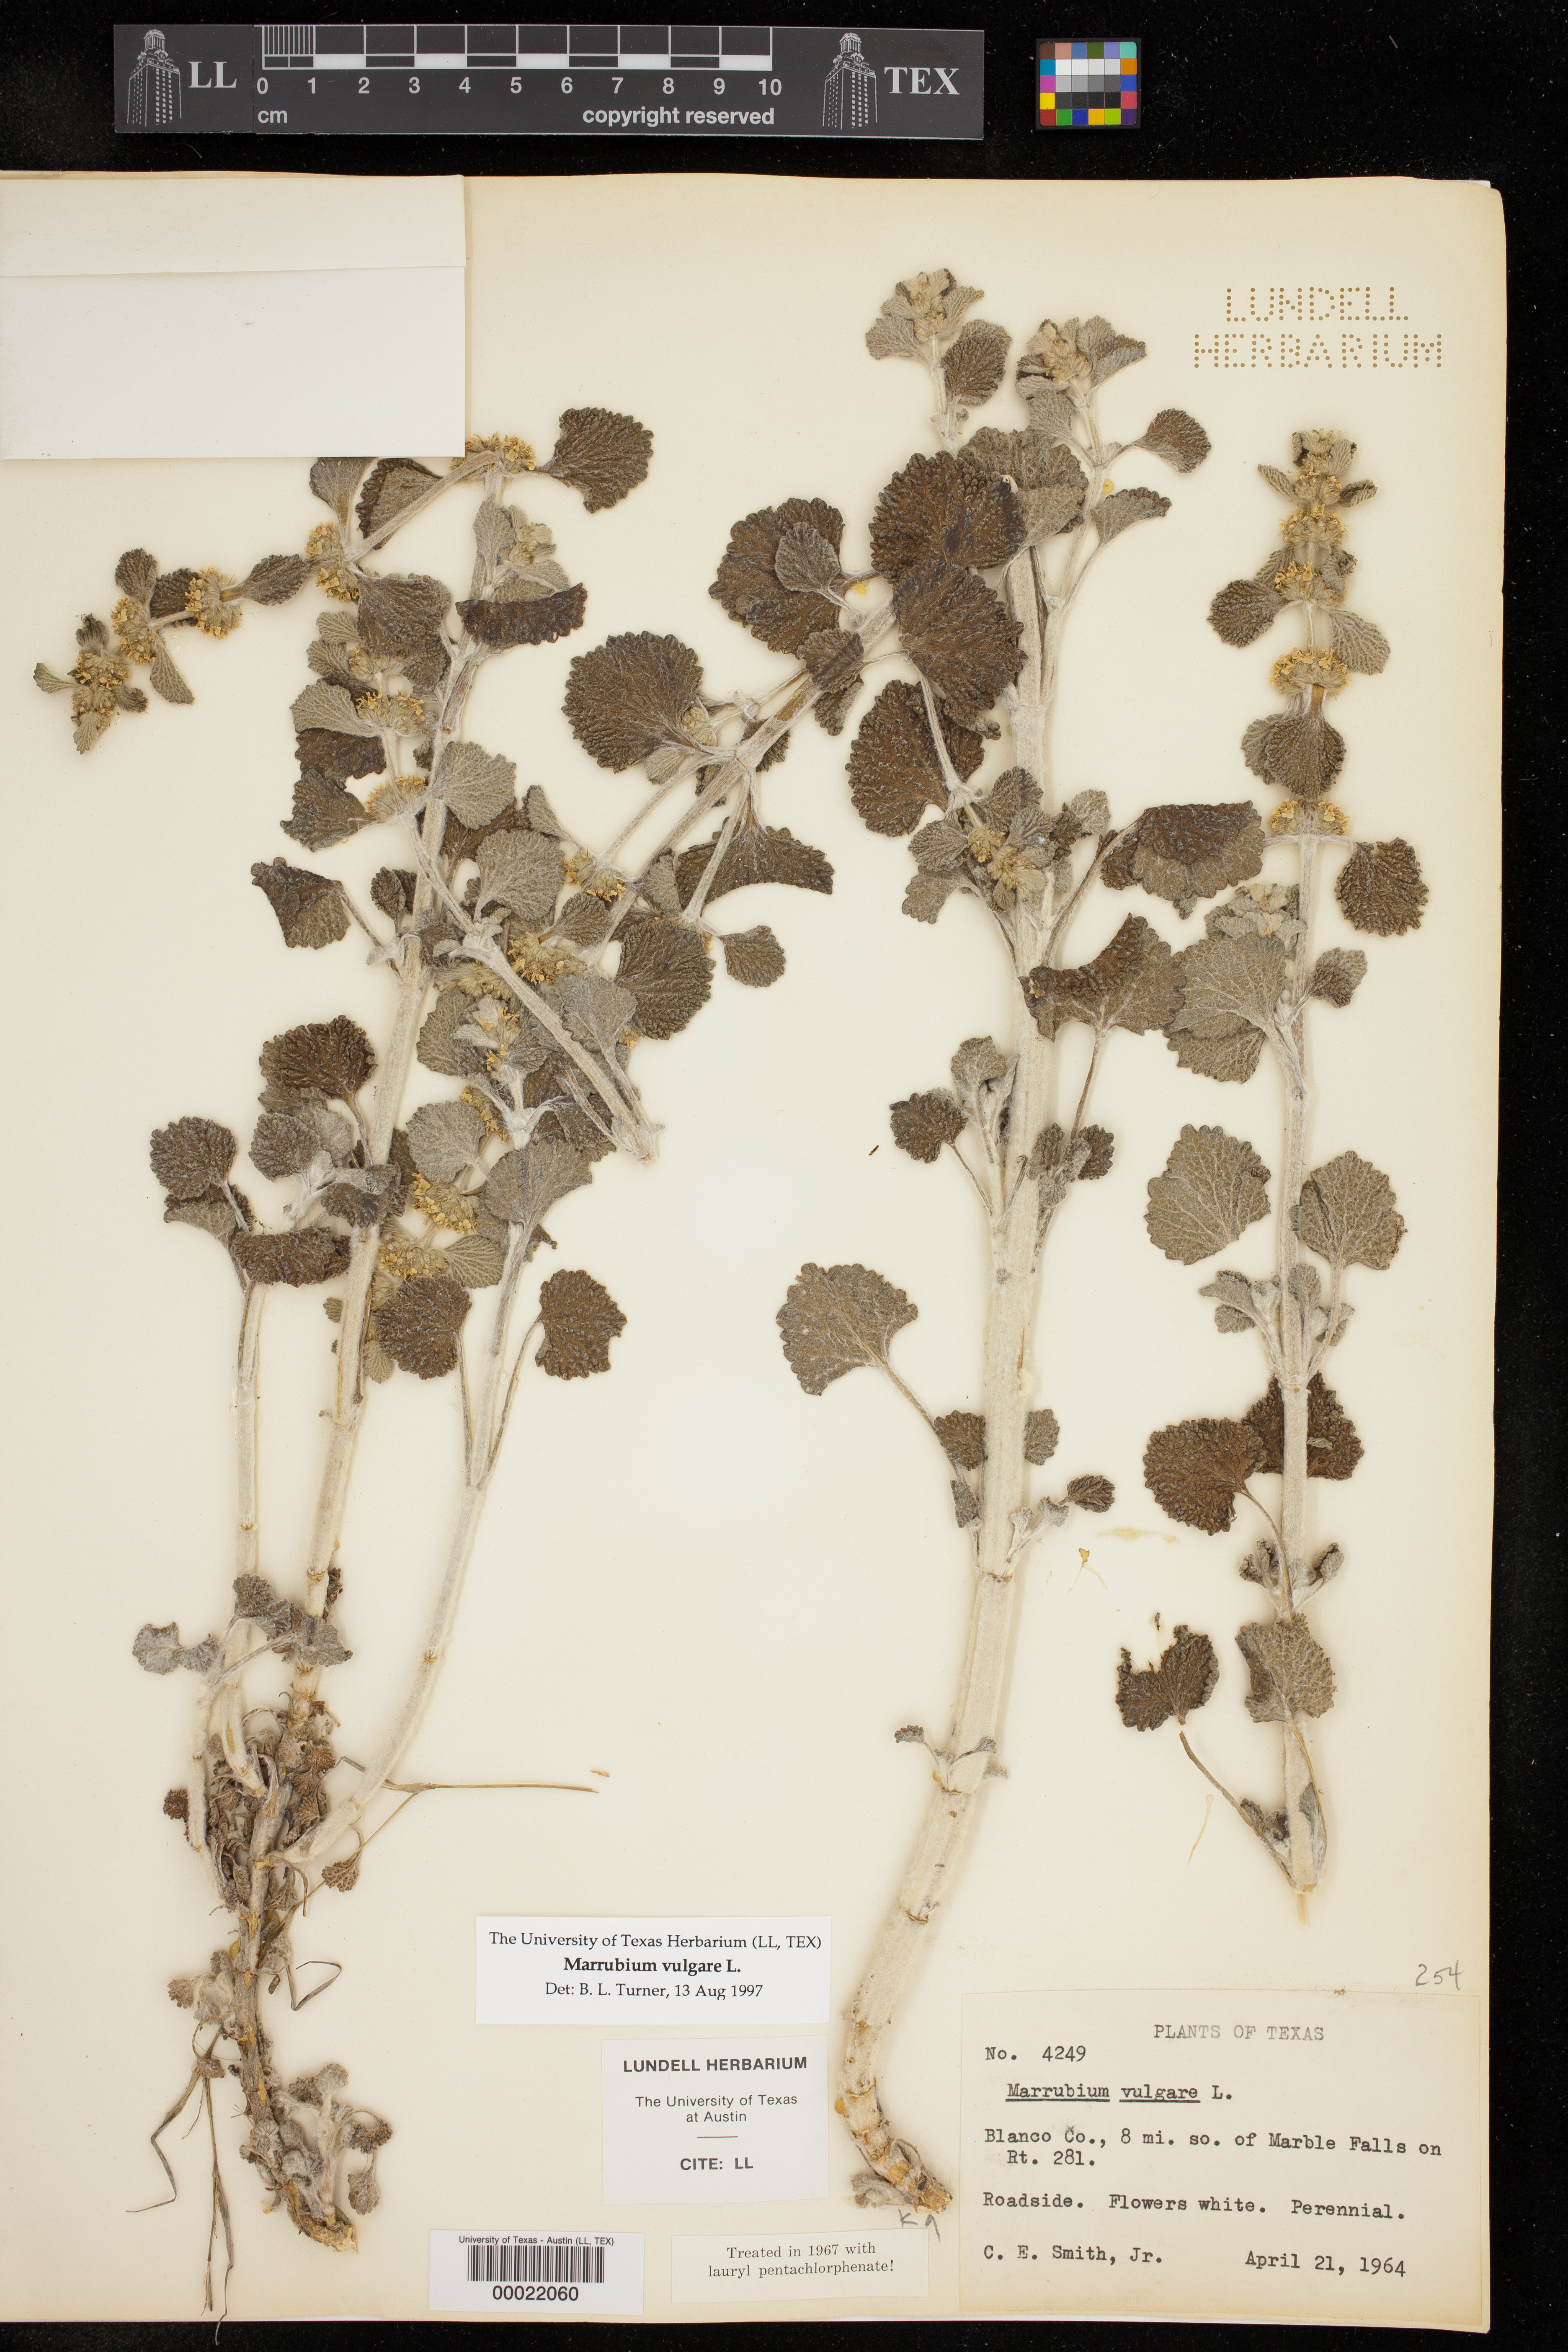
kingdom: Plantae
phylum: Tracheophyta
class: Magnoliopsida
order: Lamiales
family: Lamiaceae
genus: Marrubium
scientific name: Marrubium vulgare
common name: Horehound
